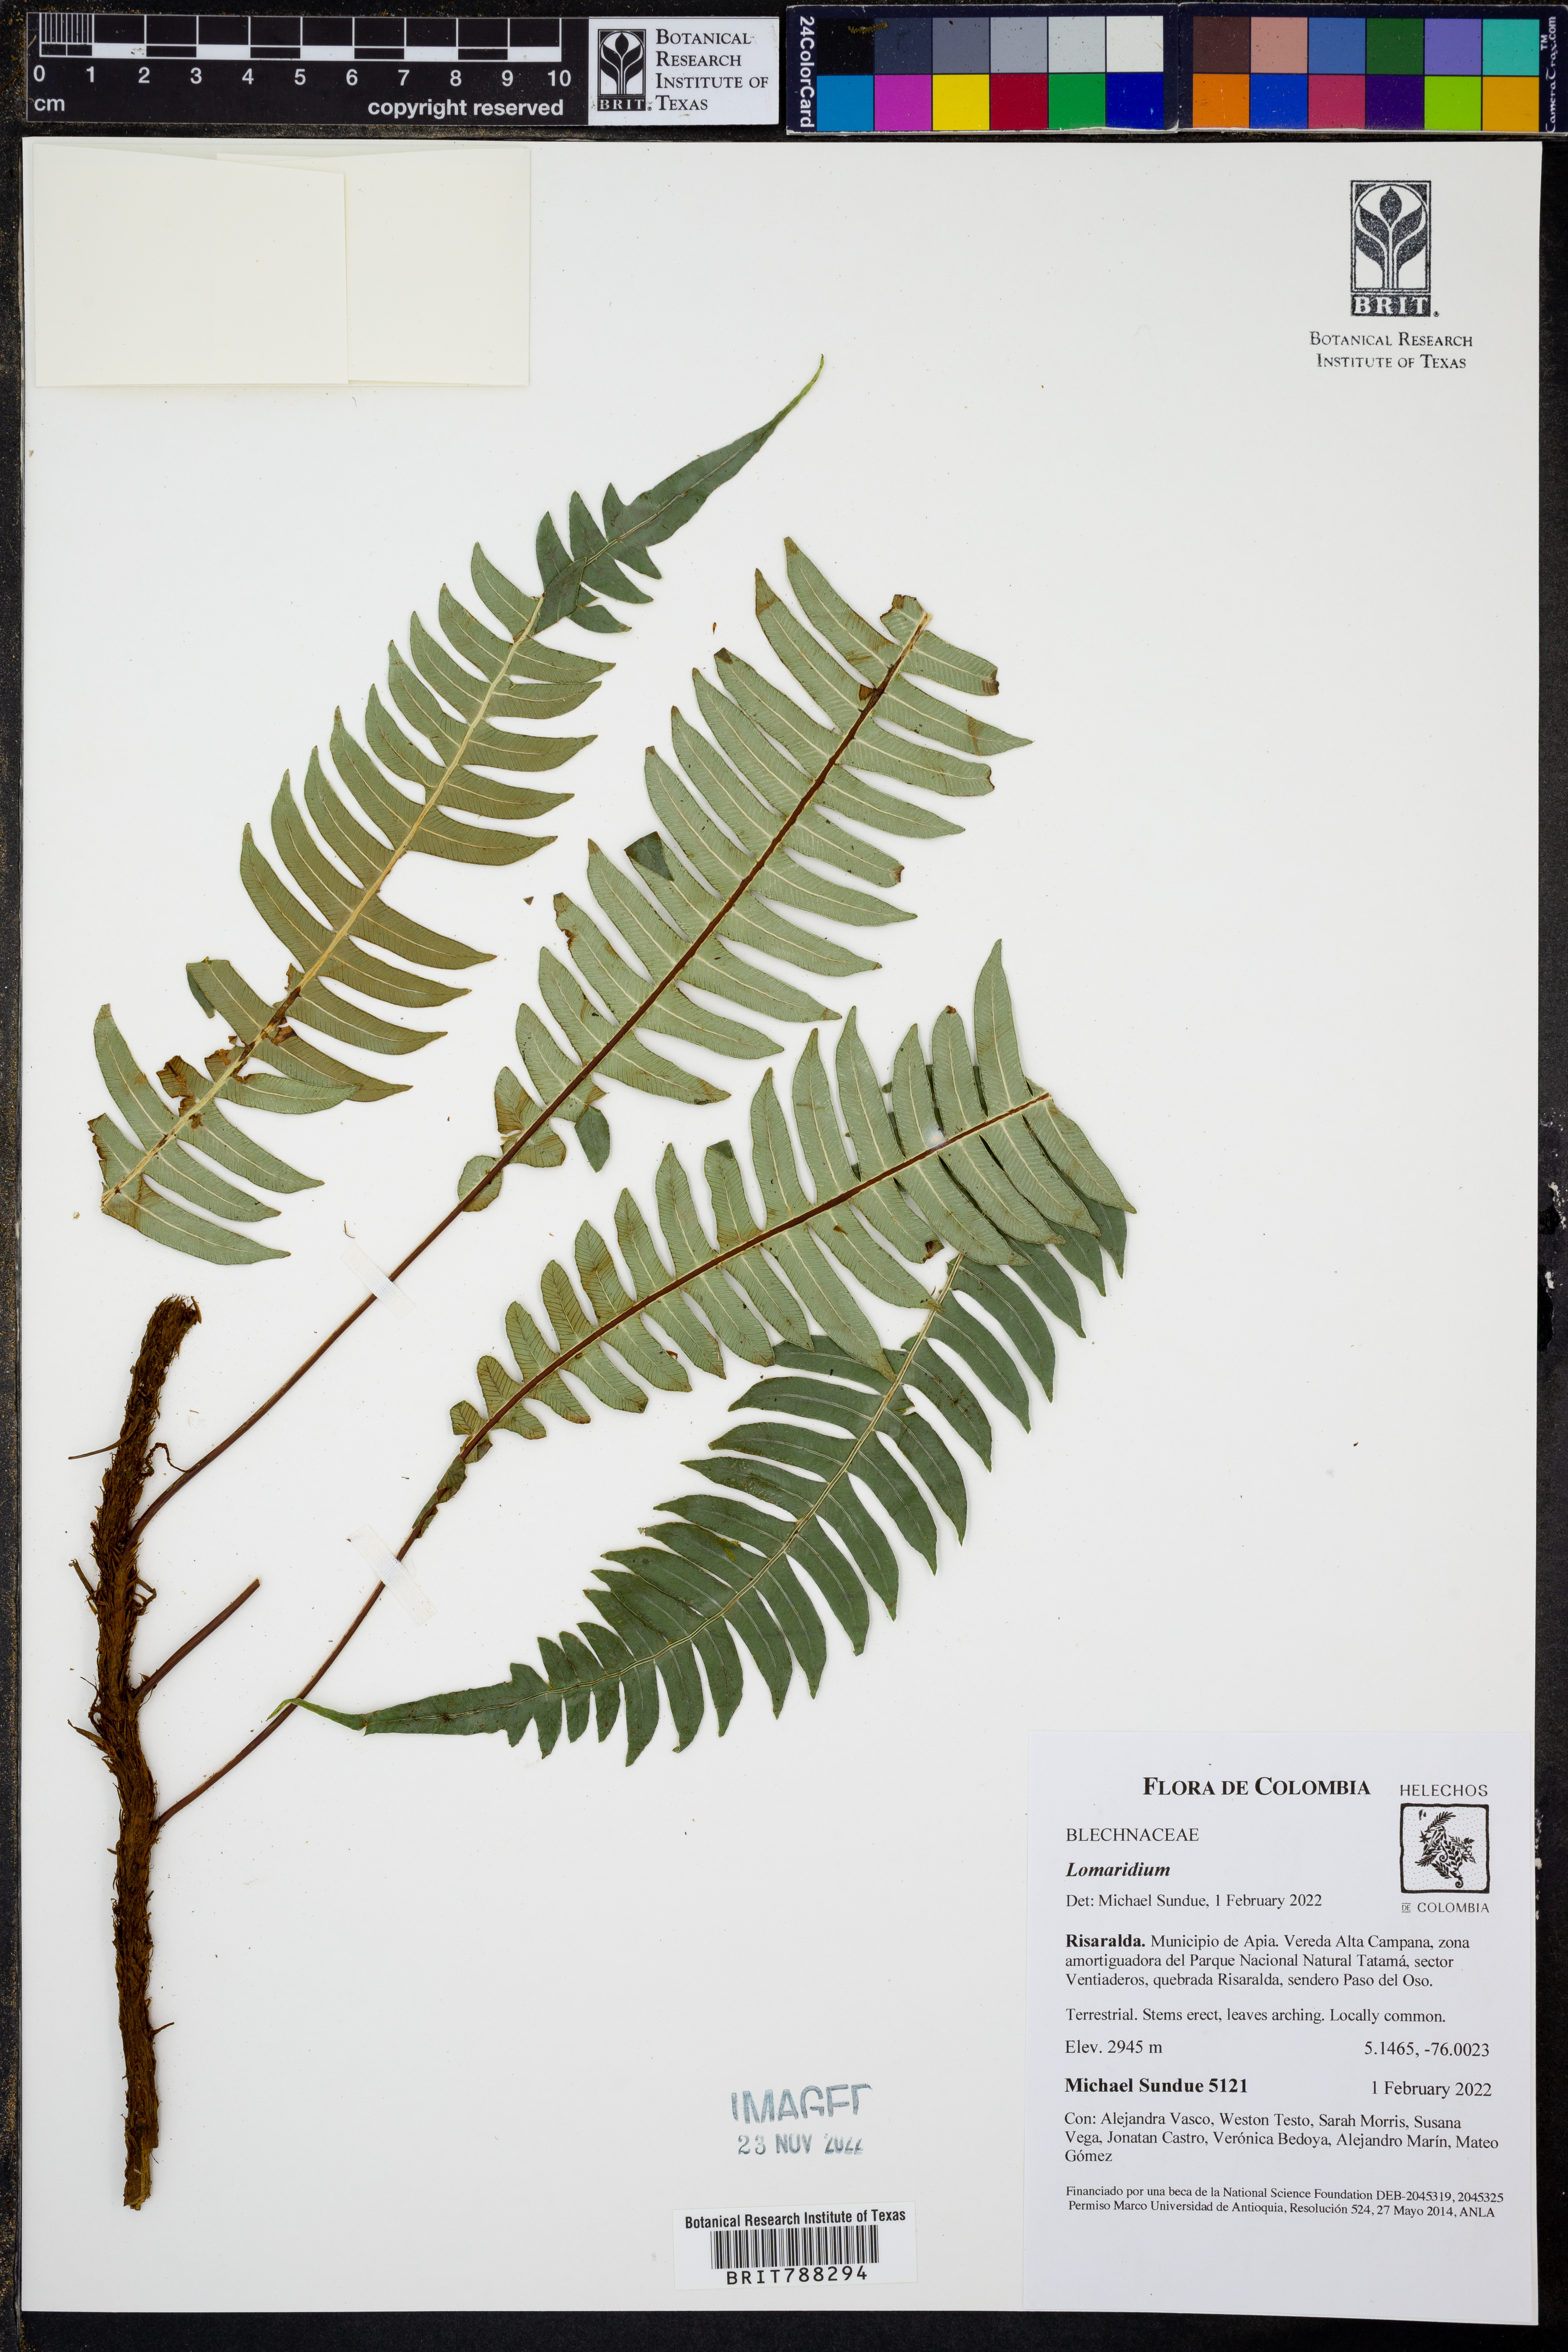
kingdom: Plantae
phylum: Tracheophyta
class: Polypodiopsida
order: Polypodiales
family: Blechnaceae
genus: Lomaridium
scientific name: Lomaridium fragile
